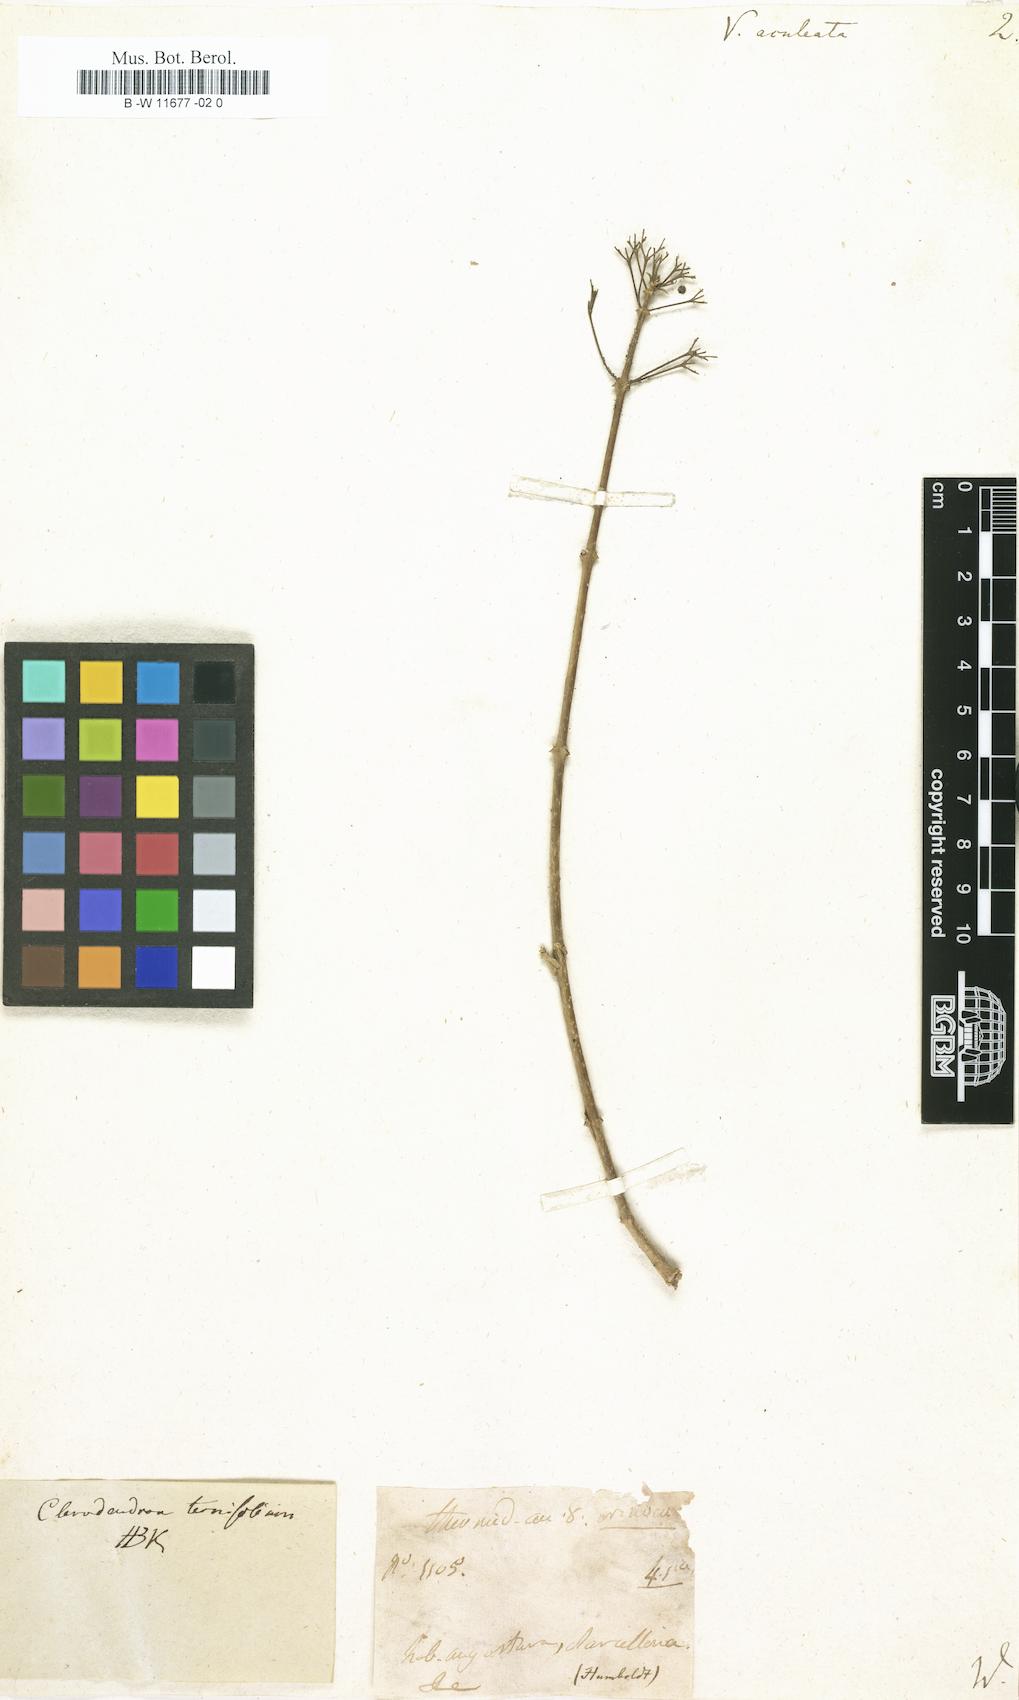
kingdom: Plantae
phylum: Tracheophyta
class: Magnoliopsida
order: Lamiales
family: Lamiaceae
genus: Volkameria
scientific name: Volkameria aculeata
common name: Prickly myrtle
